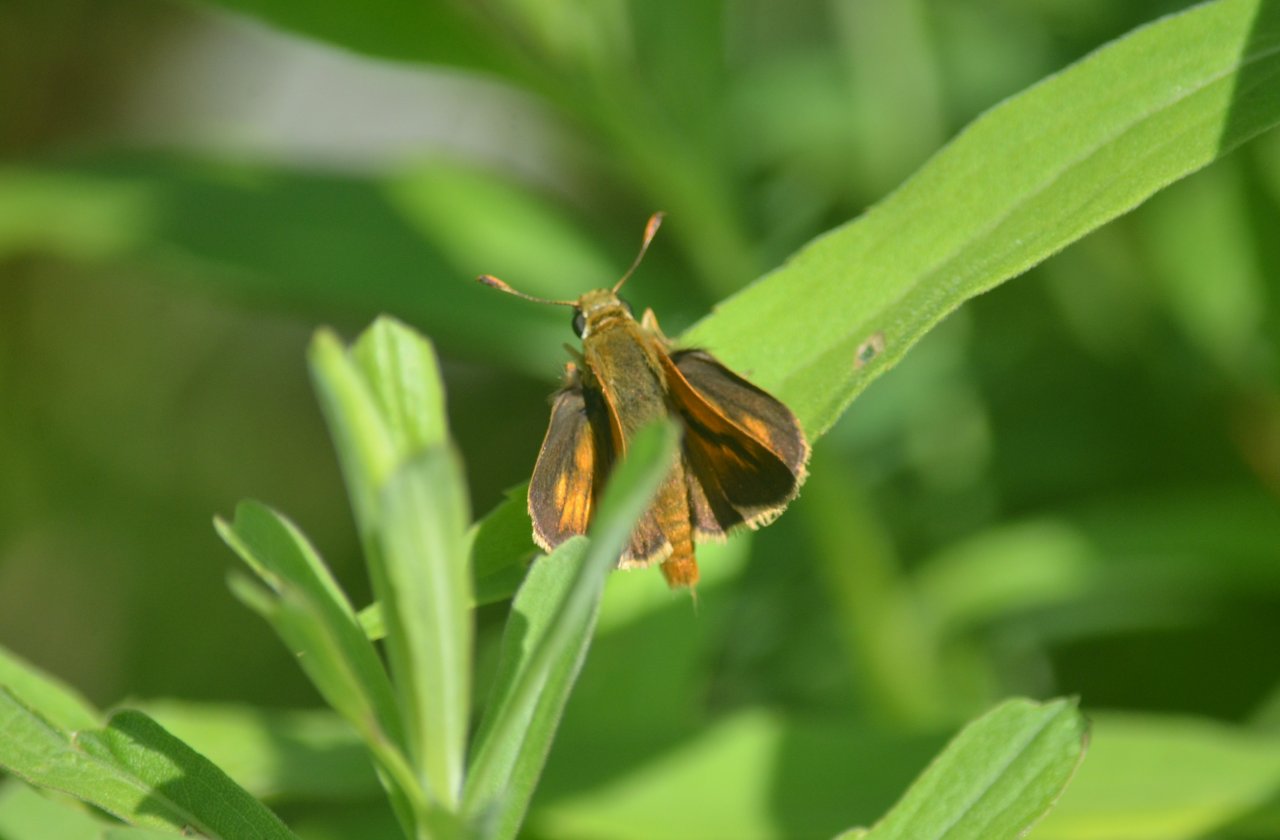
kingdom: Animalia
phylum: Arthropoda
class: Insecta
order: Lepidoptera
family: Hesperiidae
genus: Polites
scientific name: Polites
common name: Long Dash Skipper
